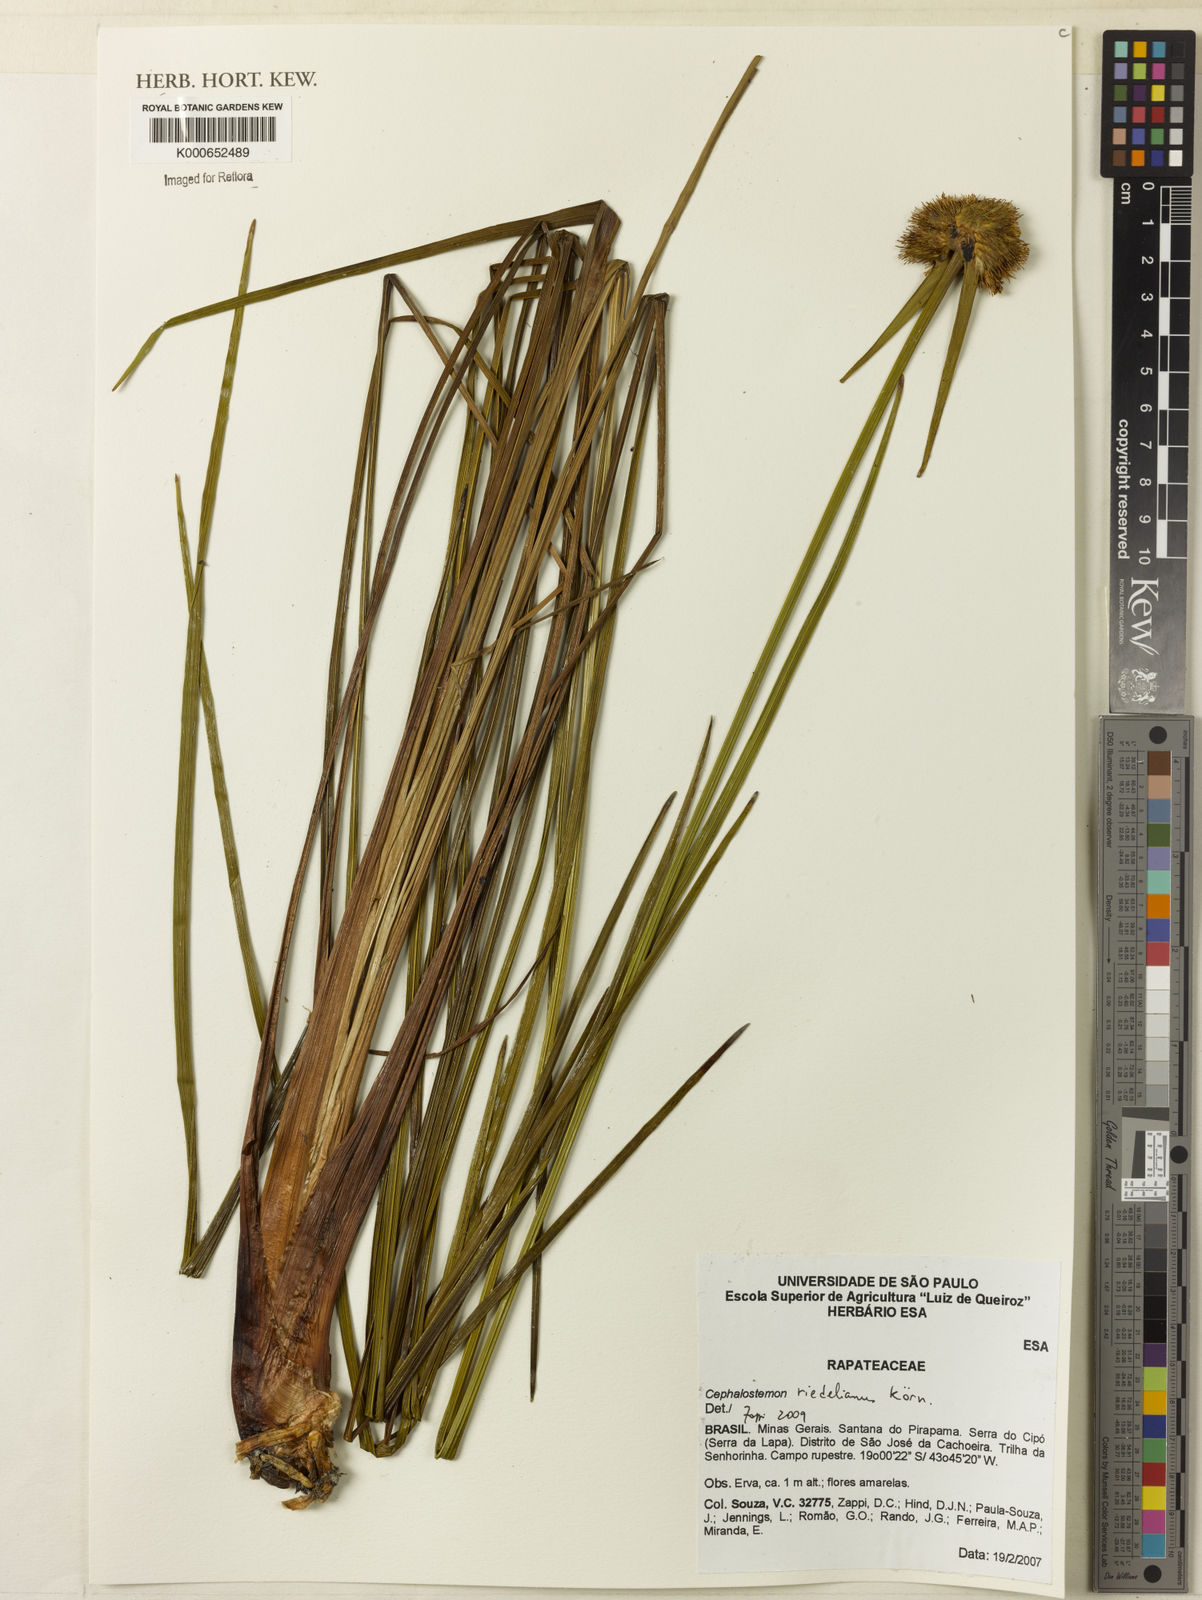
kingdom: Plantae
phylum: Tracheophyta
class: Liliopsida
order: Poales
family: Rapateaceae
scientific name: Rapateaceae
